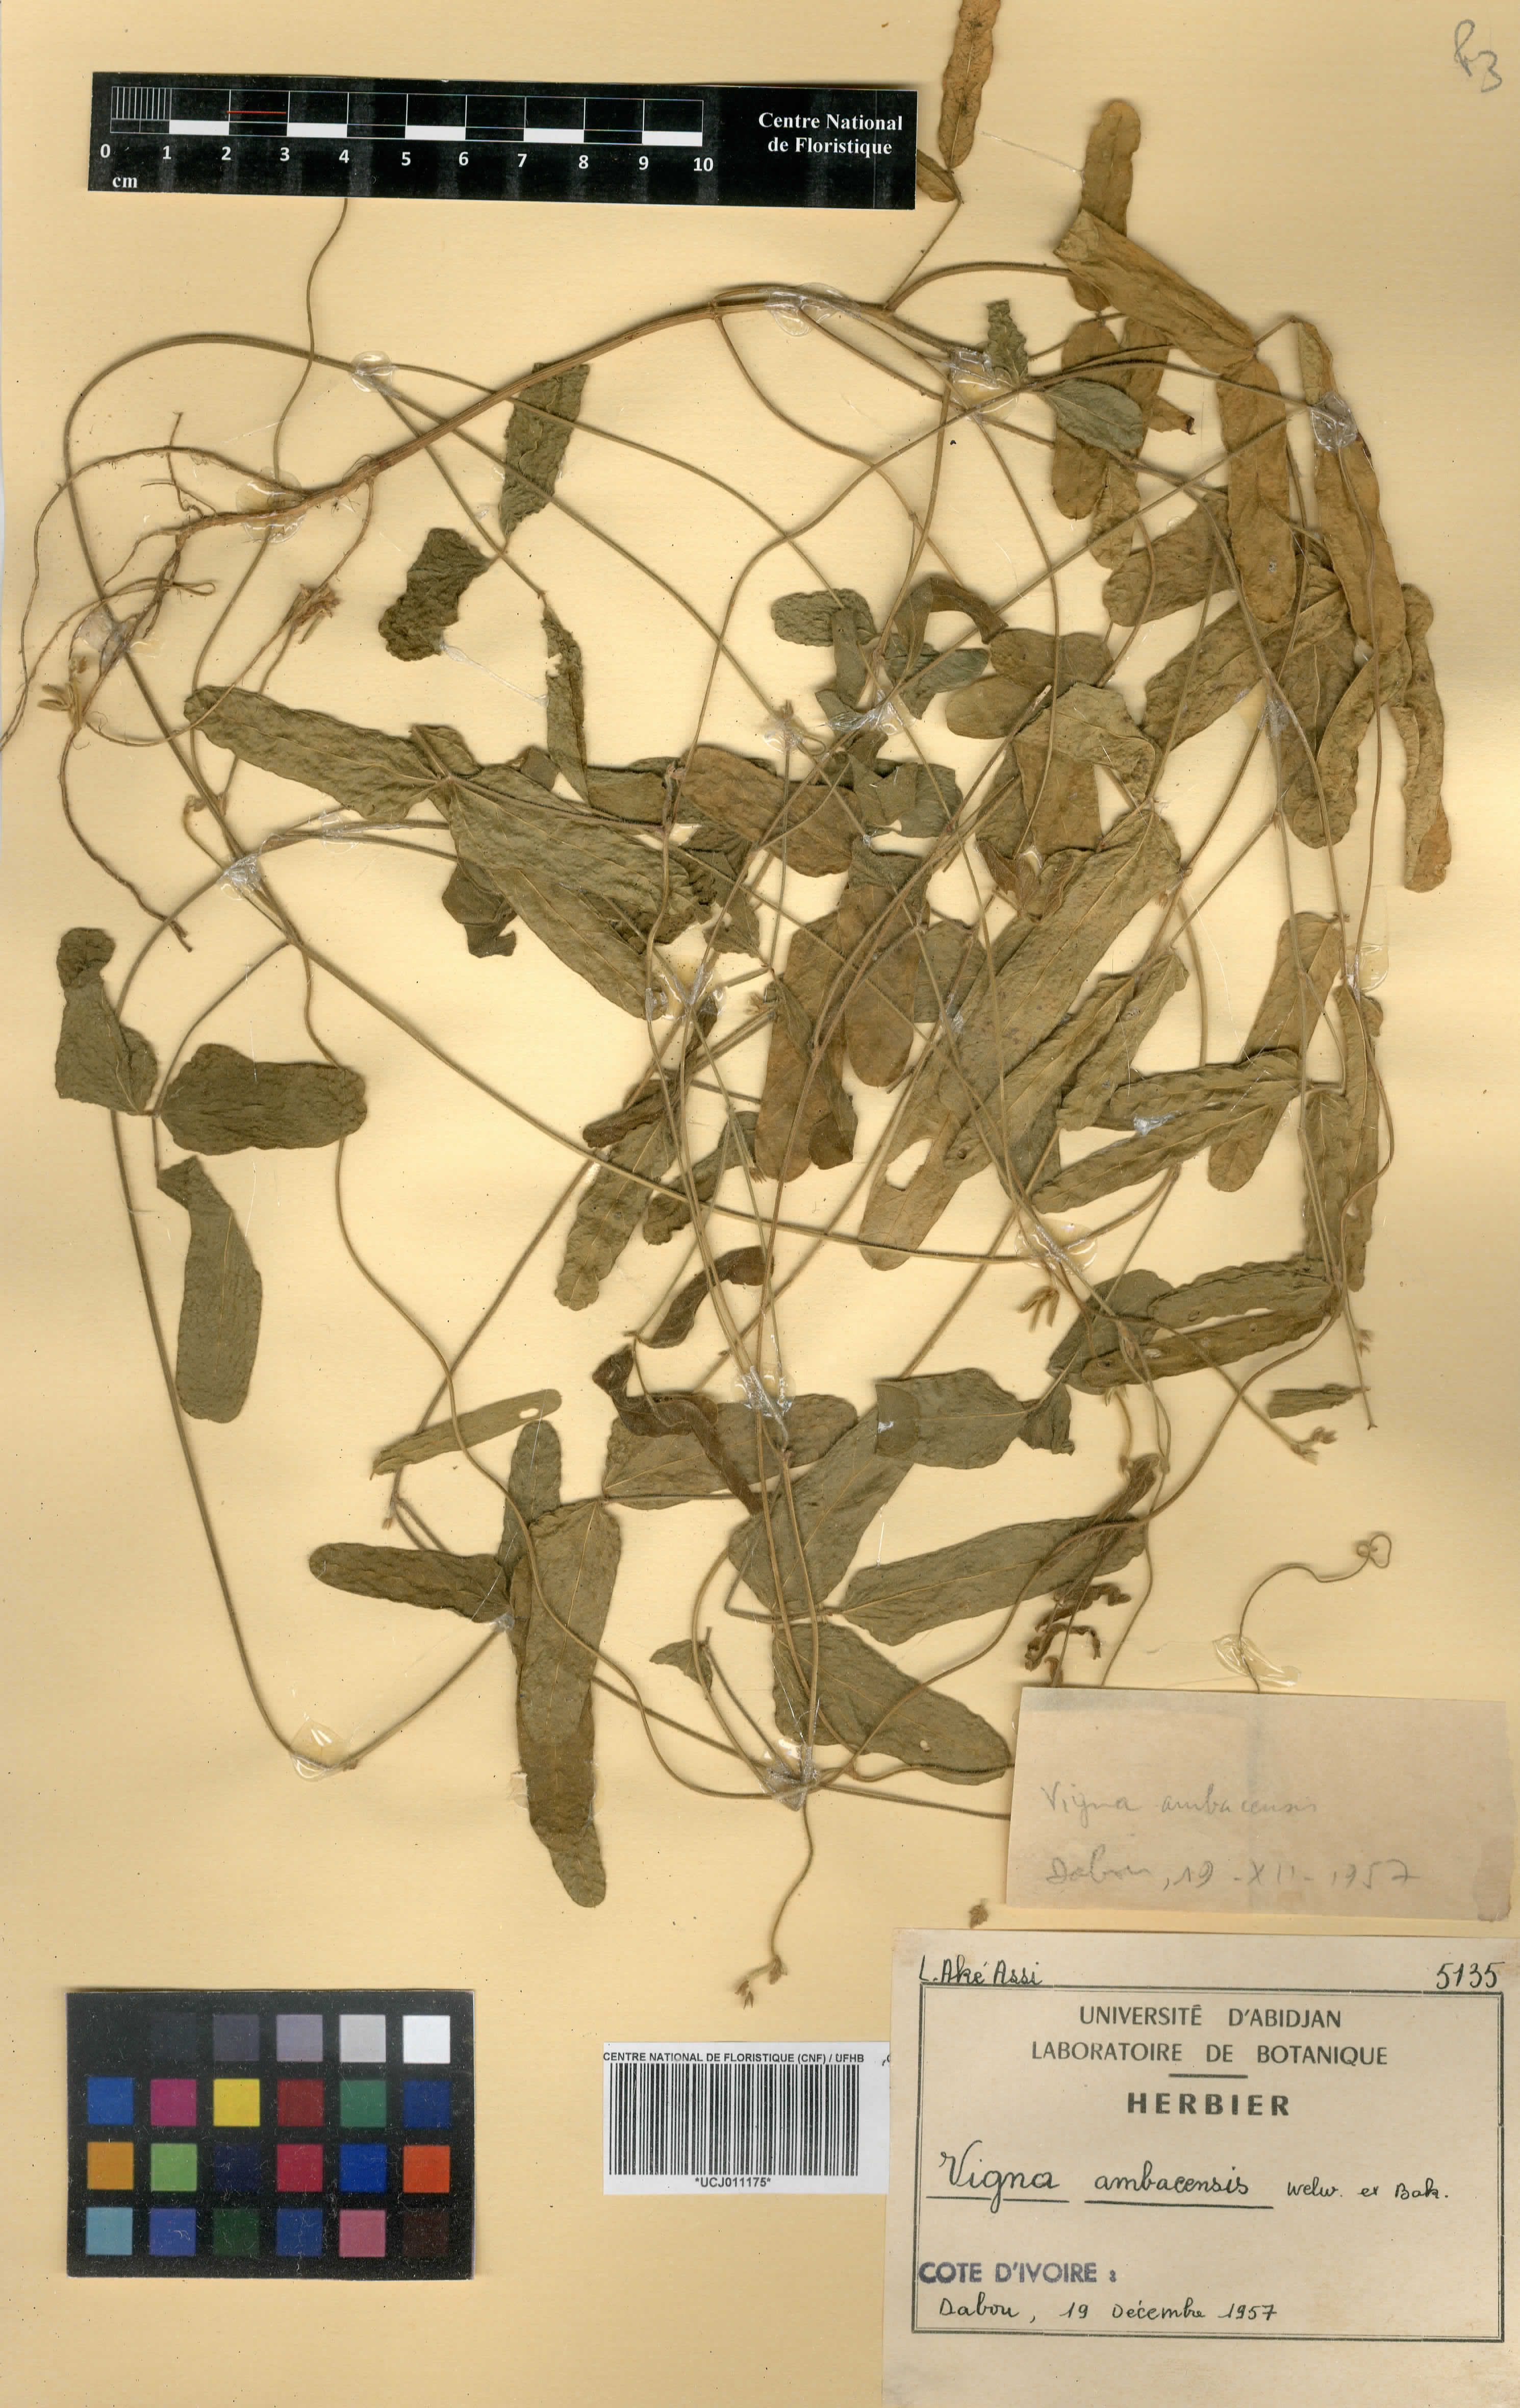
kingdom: Plantae
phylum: Tracheophyta
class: Magnoliopsida
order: Fabales
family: Fabaceae
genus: Vigna
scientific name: Vigna ambacensis
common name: Tsarkiyan zomo
